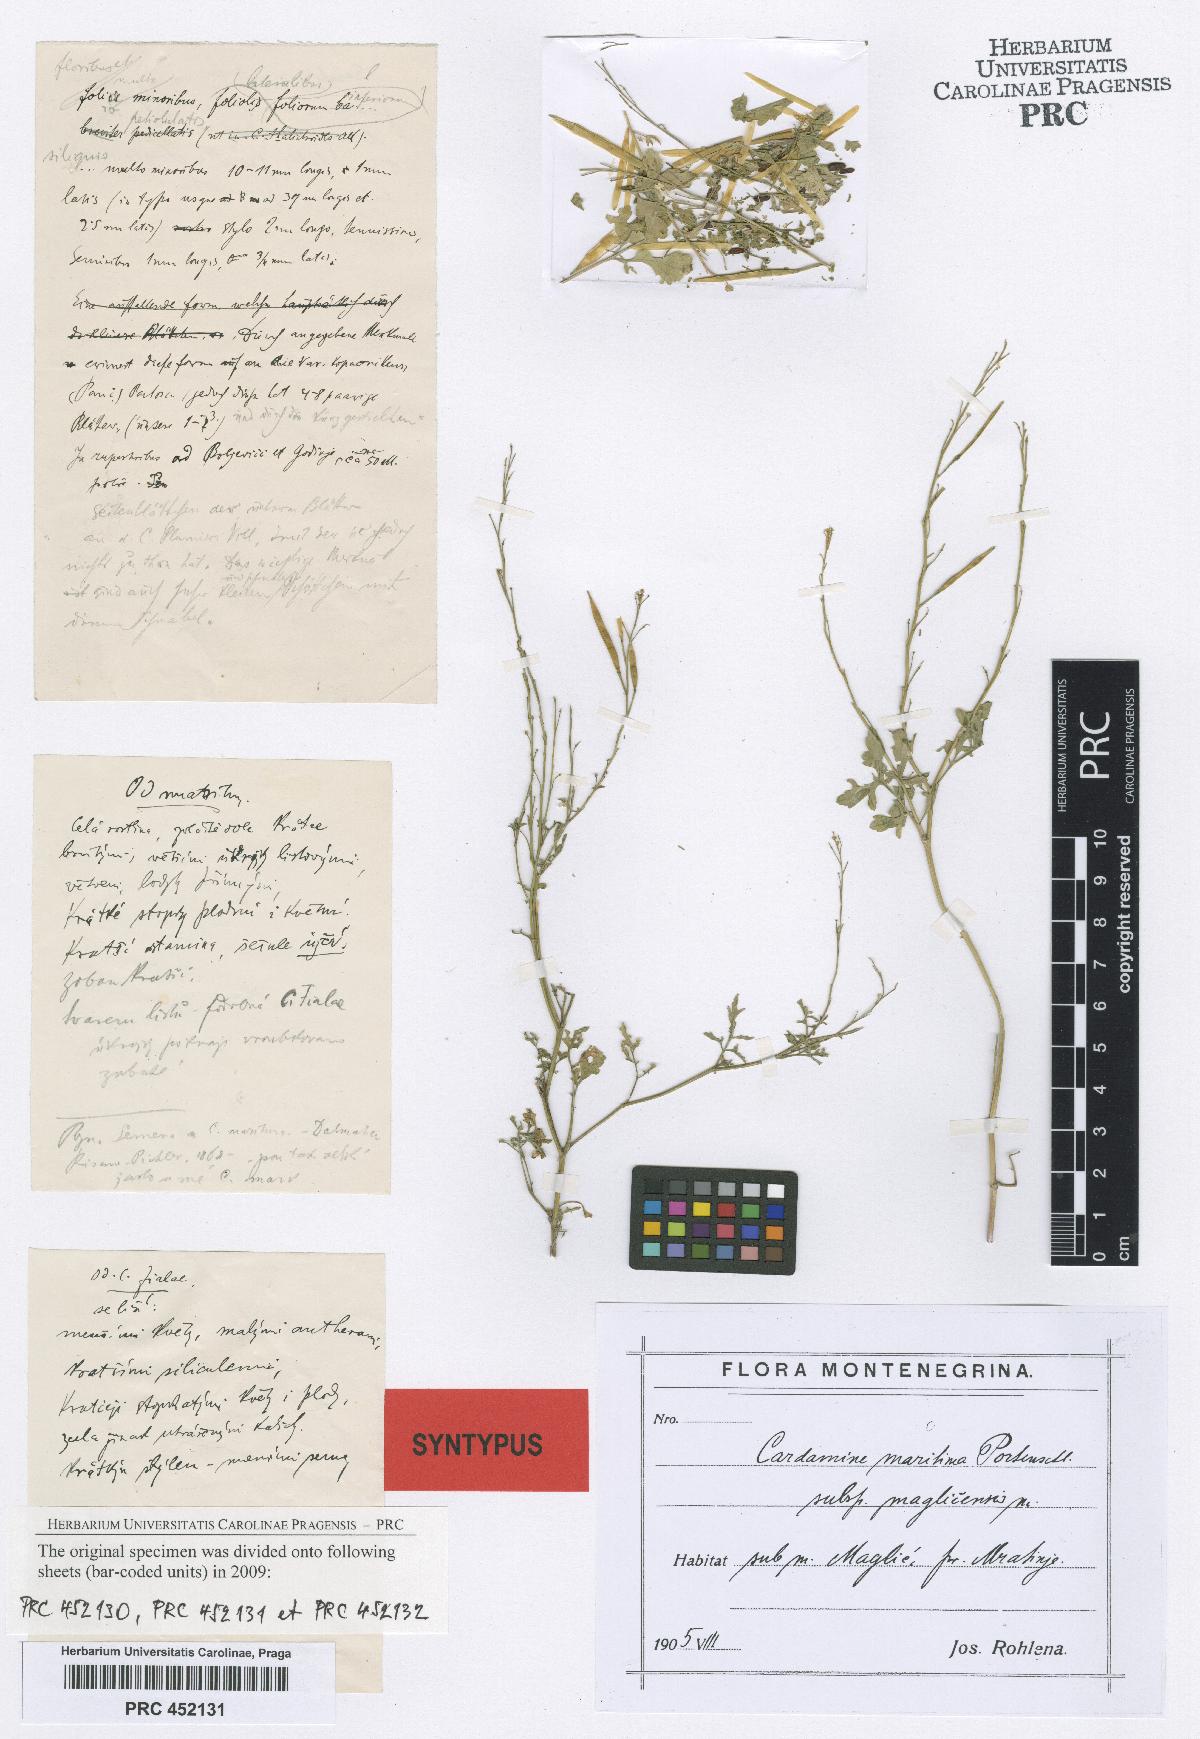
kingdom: Plantae
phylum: Tracheophyta
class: Magnoliopsida
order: Brassicales
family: Brassicaceae
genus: Cardamine
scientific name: Cardamine maritima
